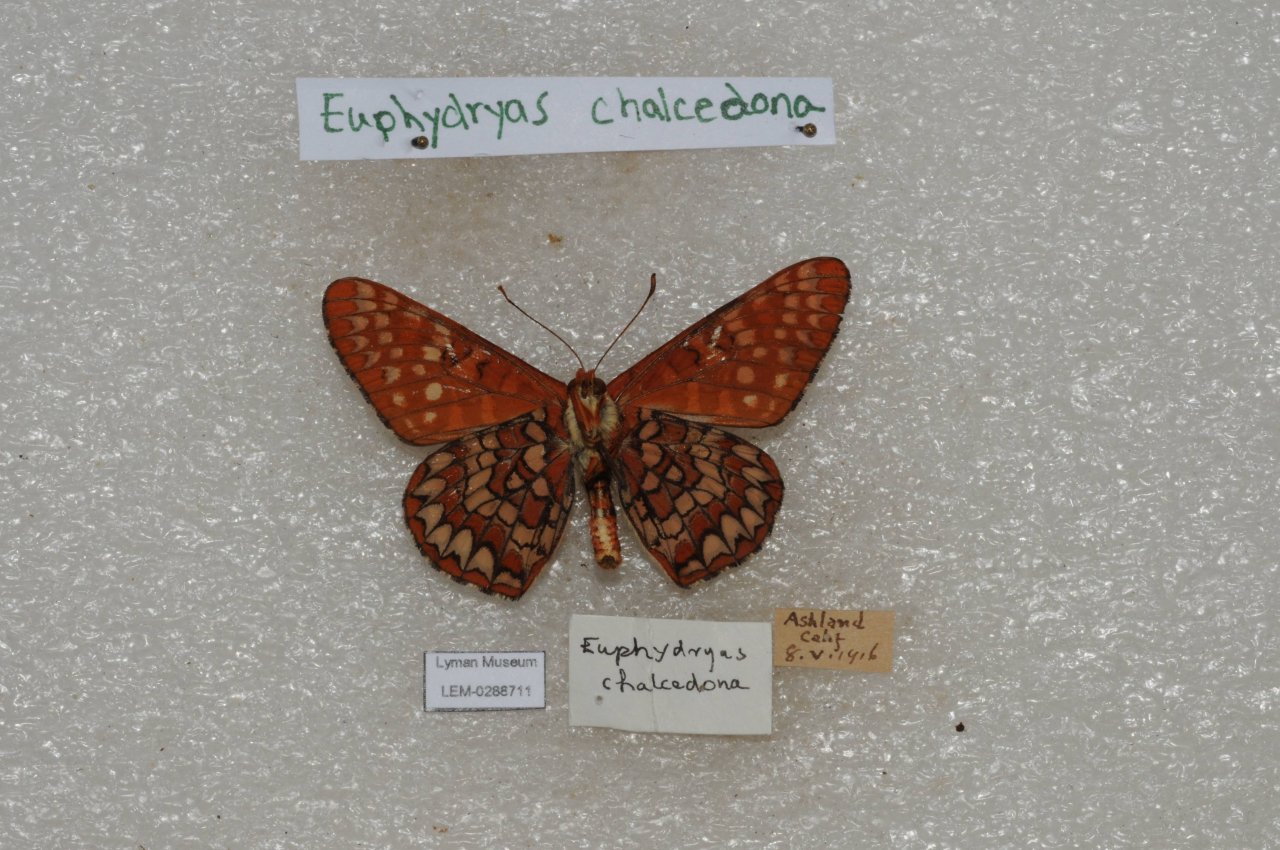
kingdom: Animalia
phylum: Arthropoda
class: Insecta
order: Lepidoptera
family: Nymphalidae
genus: Occidryas
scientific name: Occidryas chalcedona
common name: Chalcedon Checkerspot
